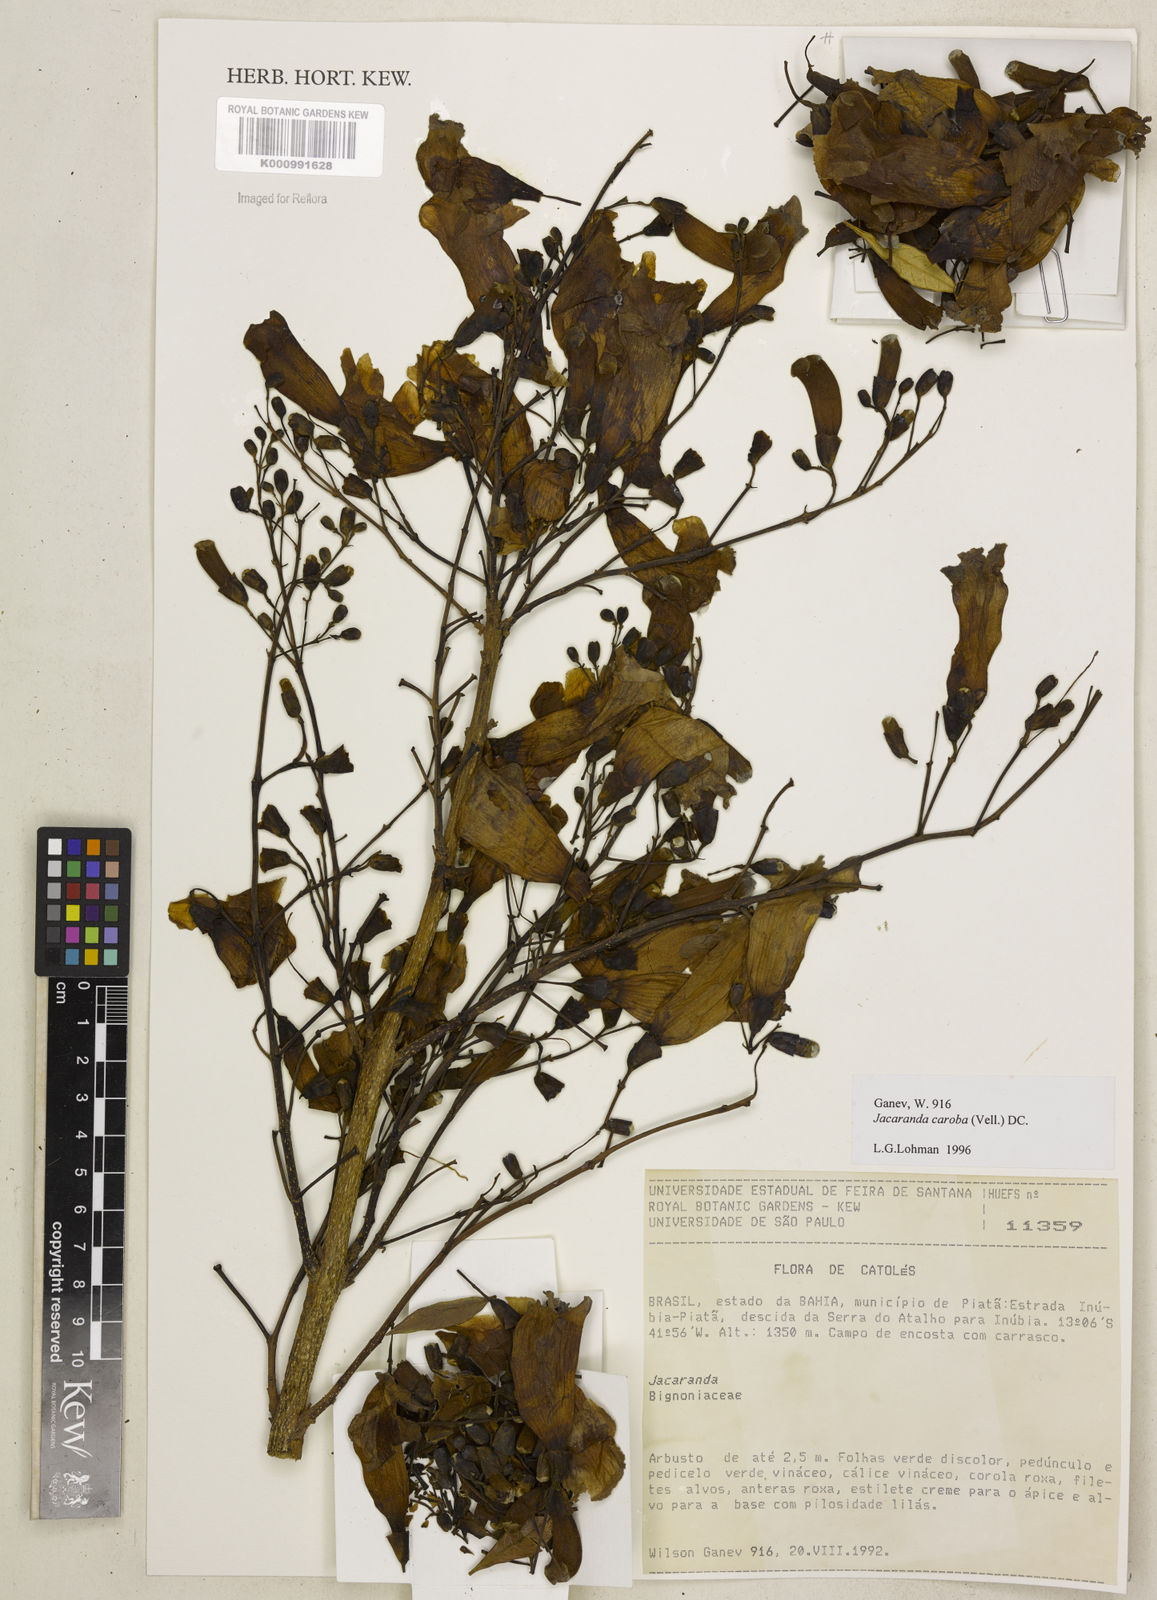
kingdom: Plantae
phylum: Tracheophyta
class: Magnoliopsida
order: Lamiales
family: Bignoniaceae
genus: Jacaranda
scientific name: Jacaranda caroba
